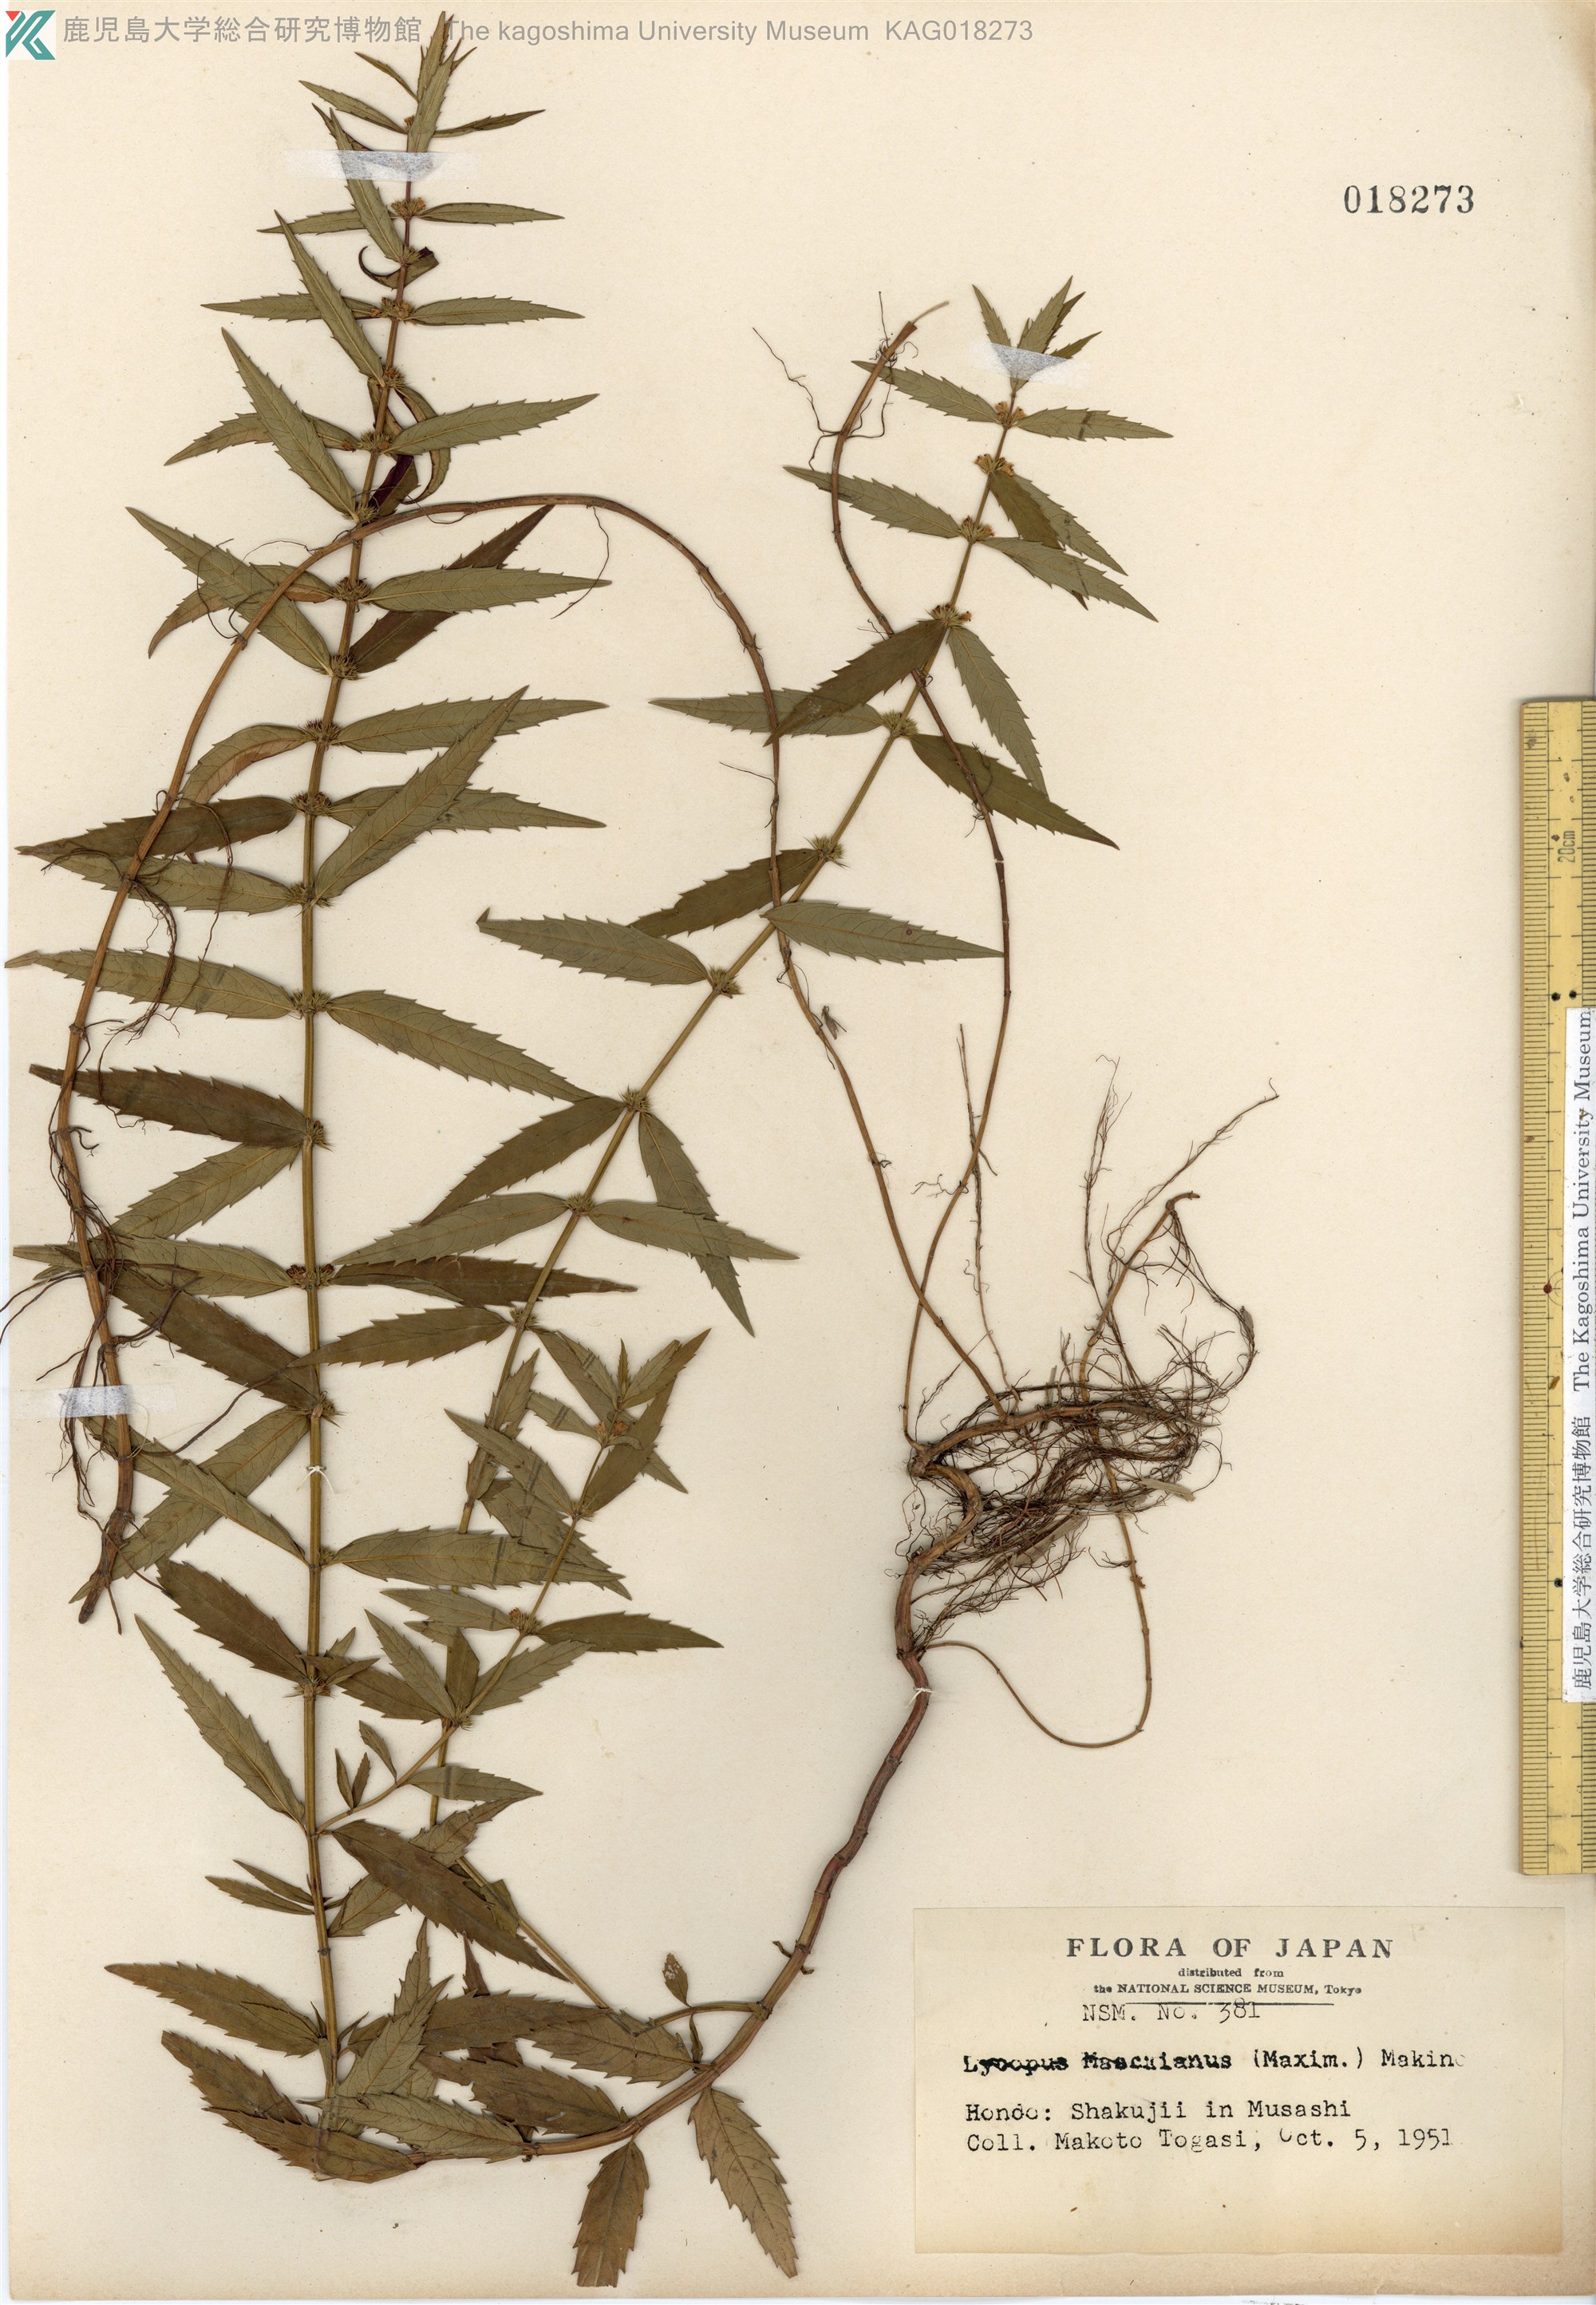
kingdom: Plantae
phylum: Tracheophyta
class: Magnoliopsida
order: Lamiales
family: Lamiaceae
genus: Lycopus
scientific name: Lycopus lucidus
